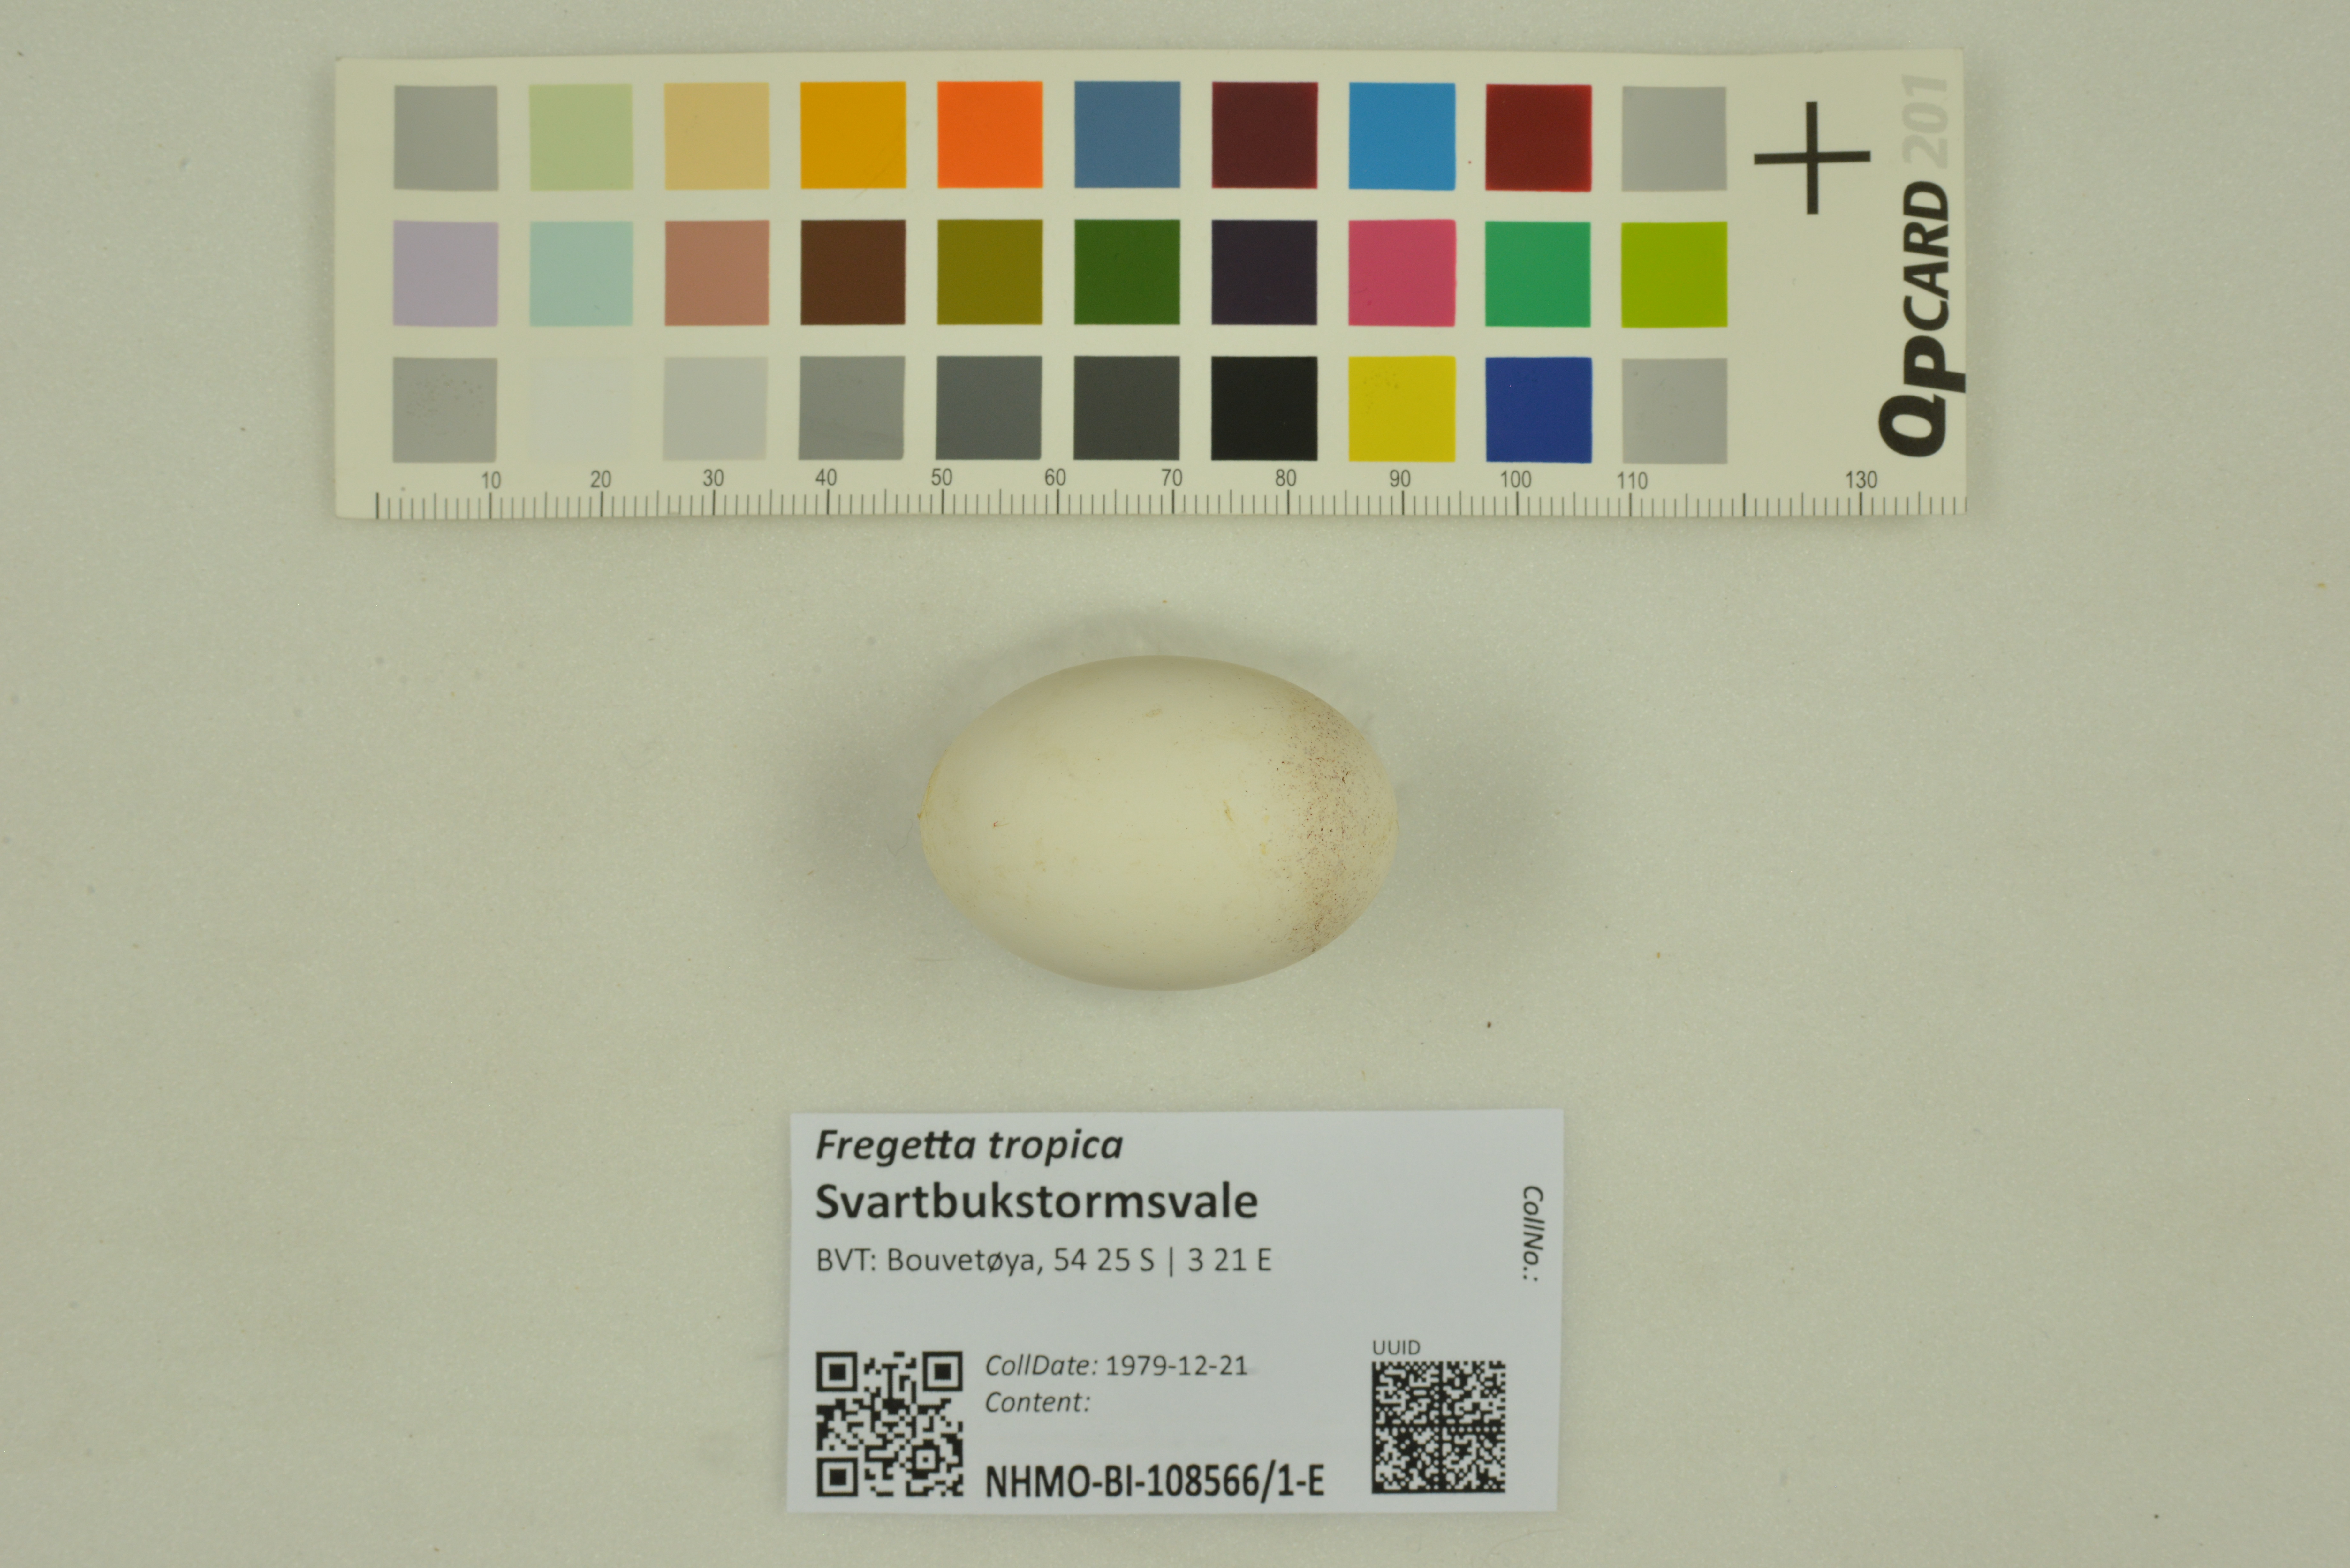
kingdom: Animalia
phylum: Chordata
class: Aves
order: Procellariiformes
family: Hydrobatidae
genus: Fregetta
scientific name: Fregetta tropica
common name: Black-bellied storm-petrel
